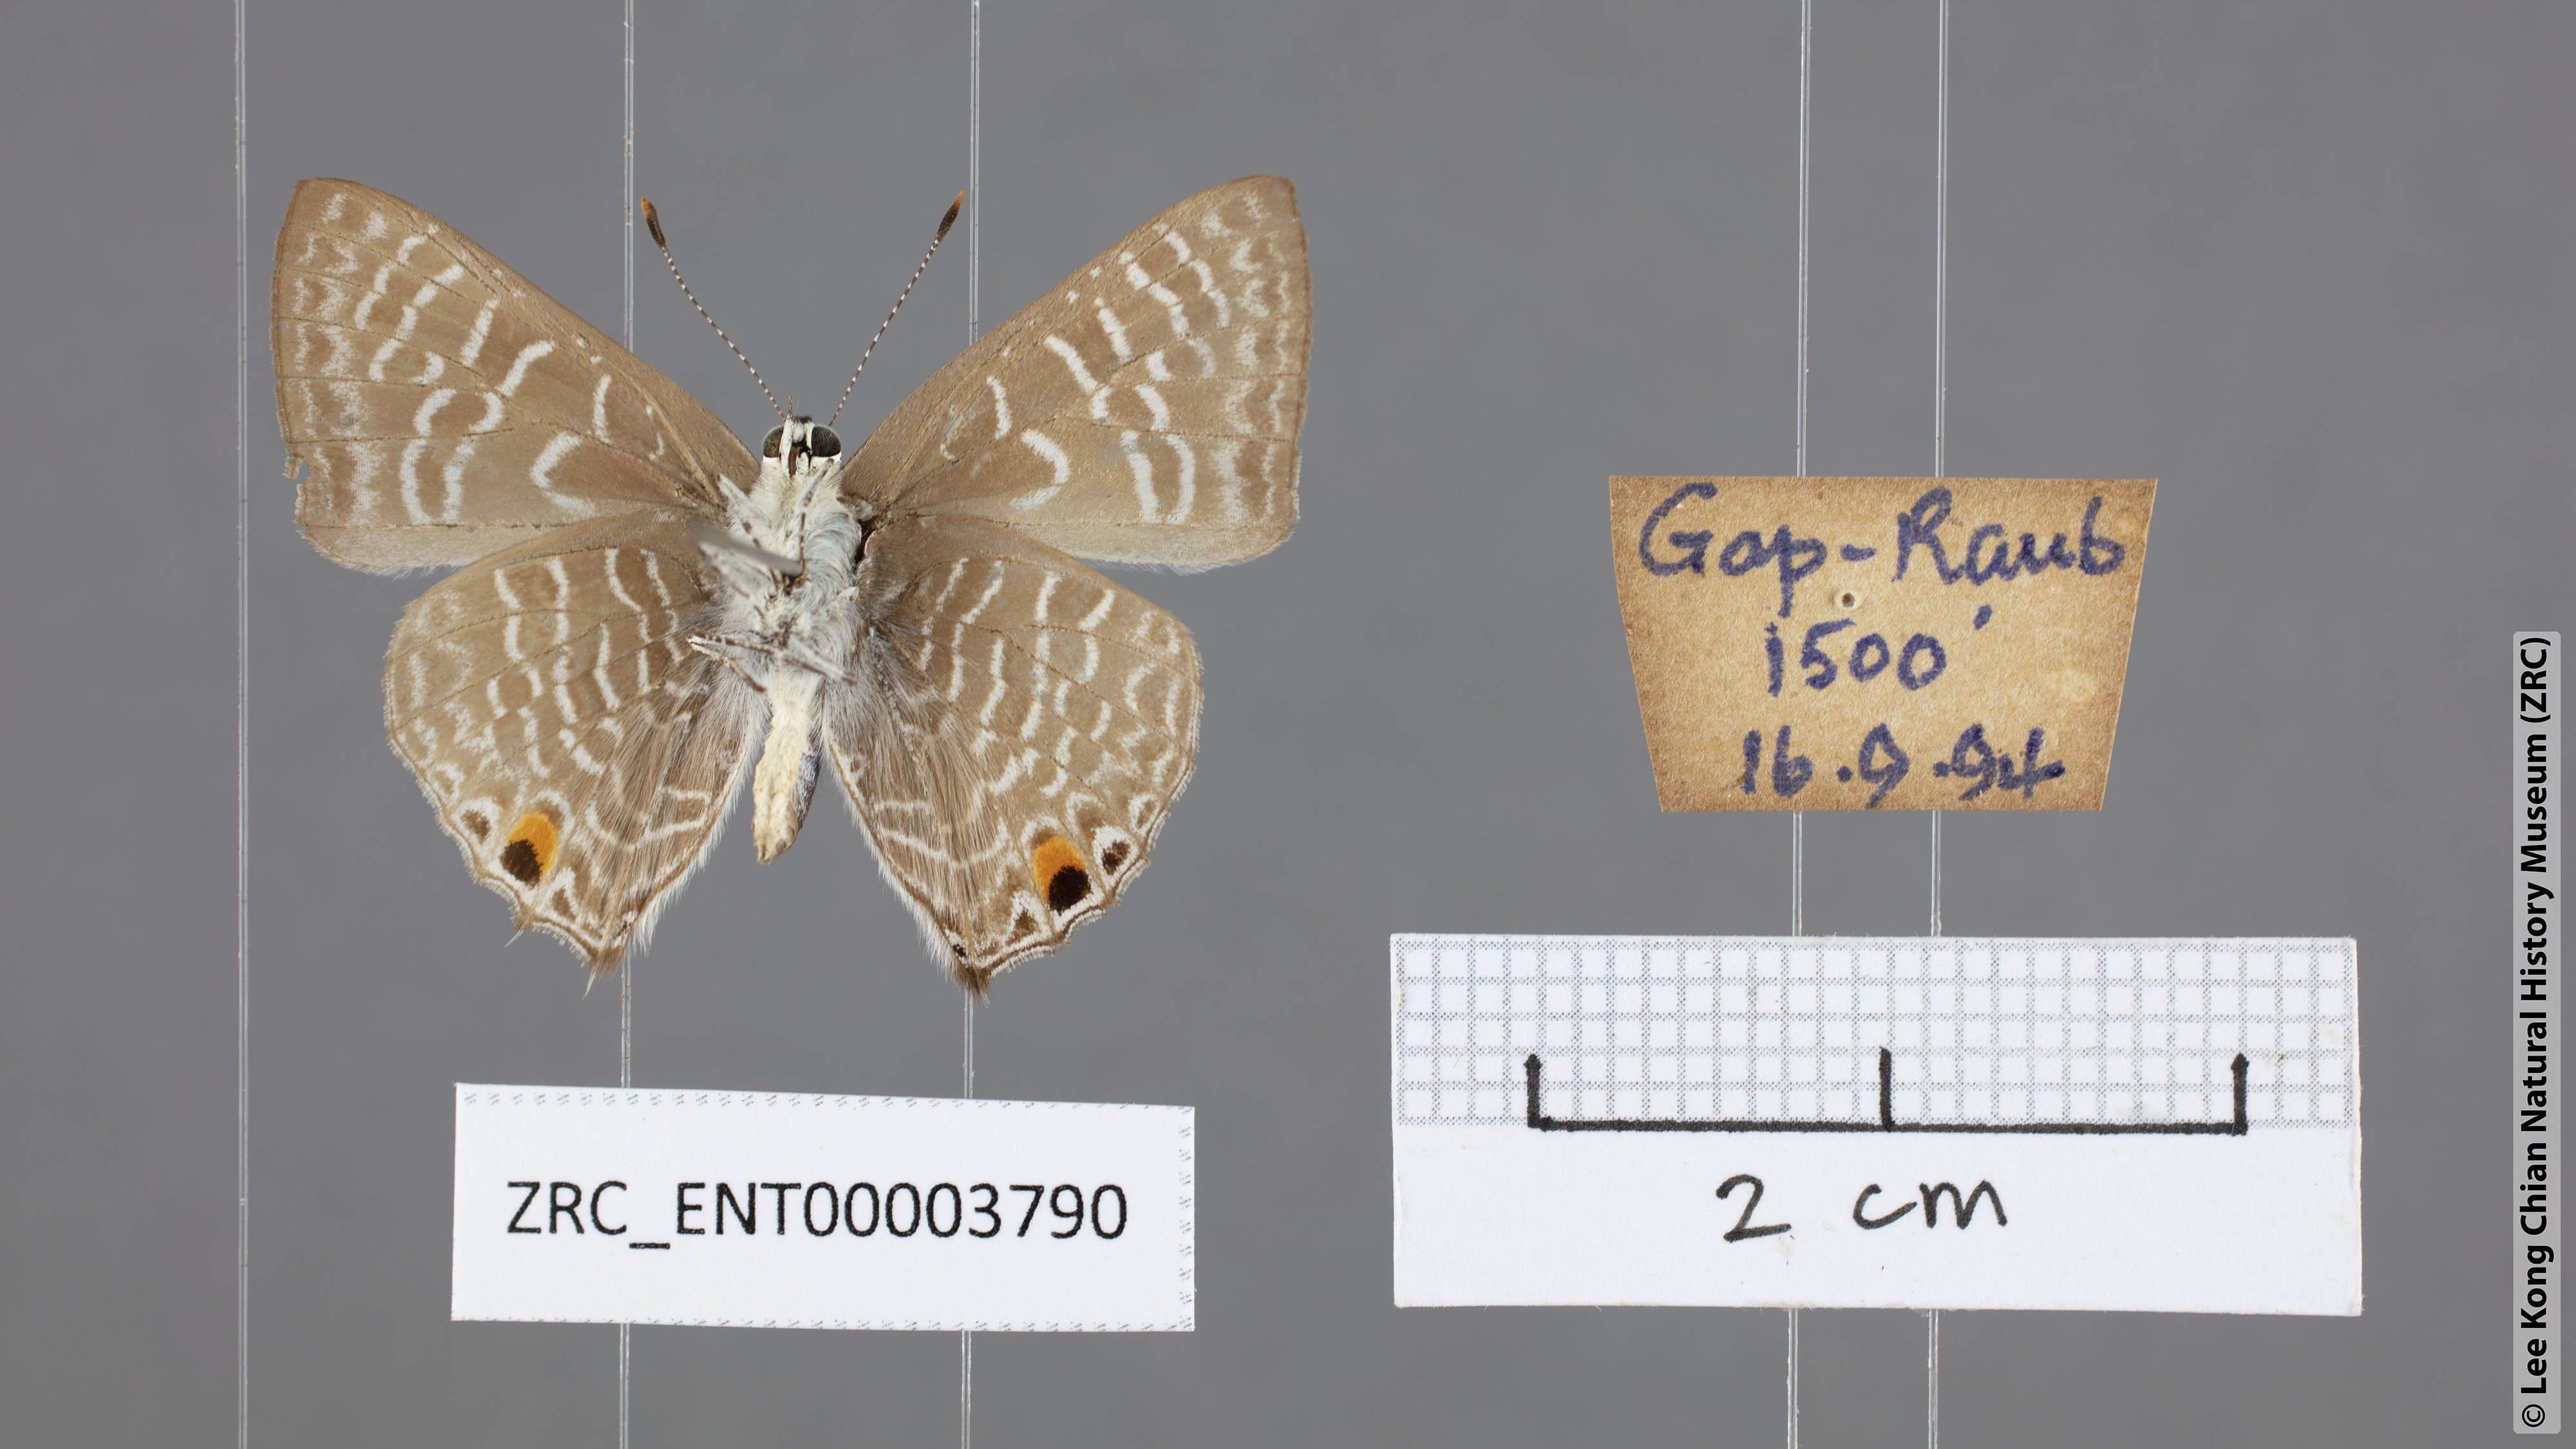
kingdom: Animalia
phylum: Arthropoda
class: Insecta
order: Lepidoptera
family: Lycaenidae
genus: Anthene
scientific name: Anthene licates
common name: White ciliate blue
